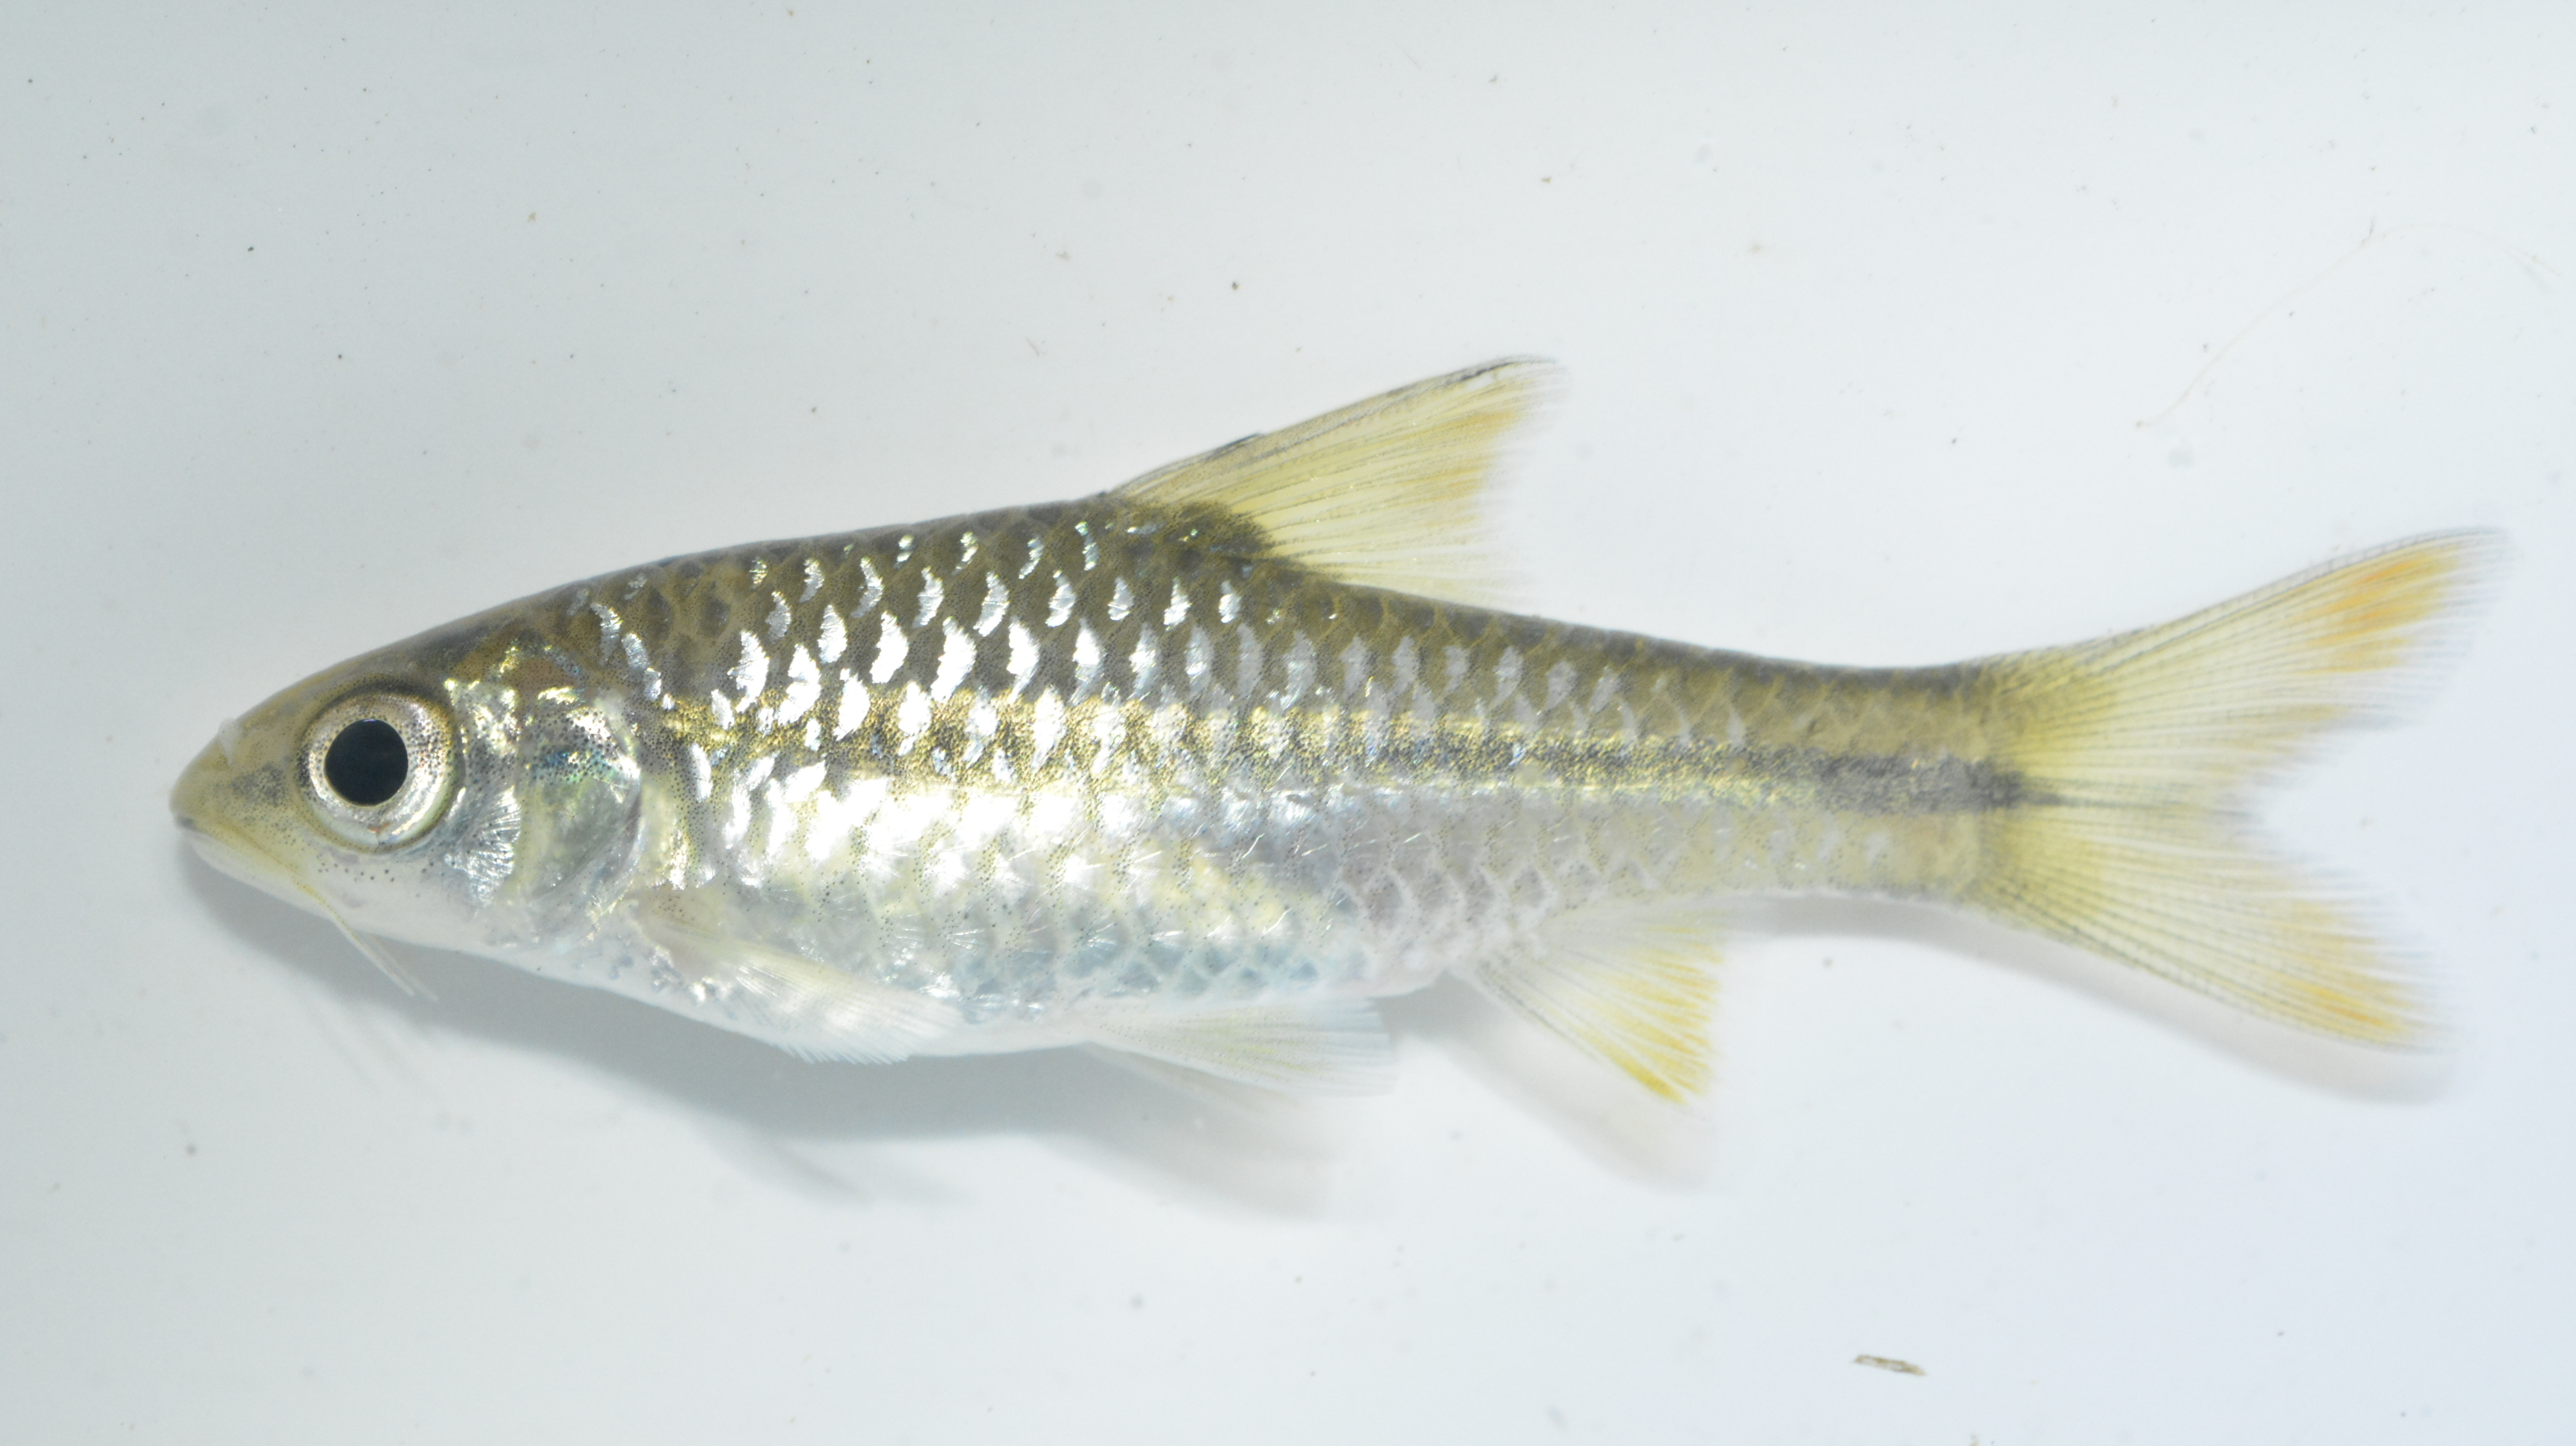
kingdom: Animalia
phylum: Chordata
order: Cypriniformes
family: Cyprinidae
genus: Enteromius
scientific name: Enteromius eutaenia
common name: Orangefin barb
